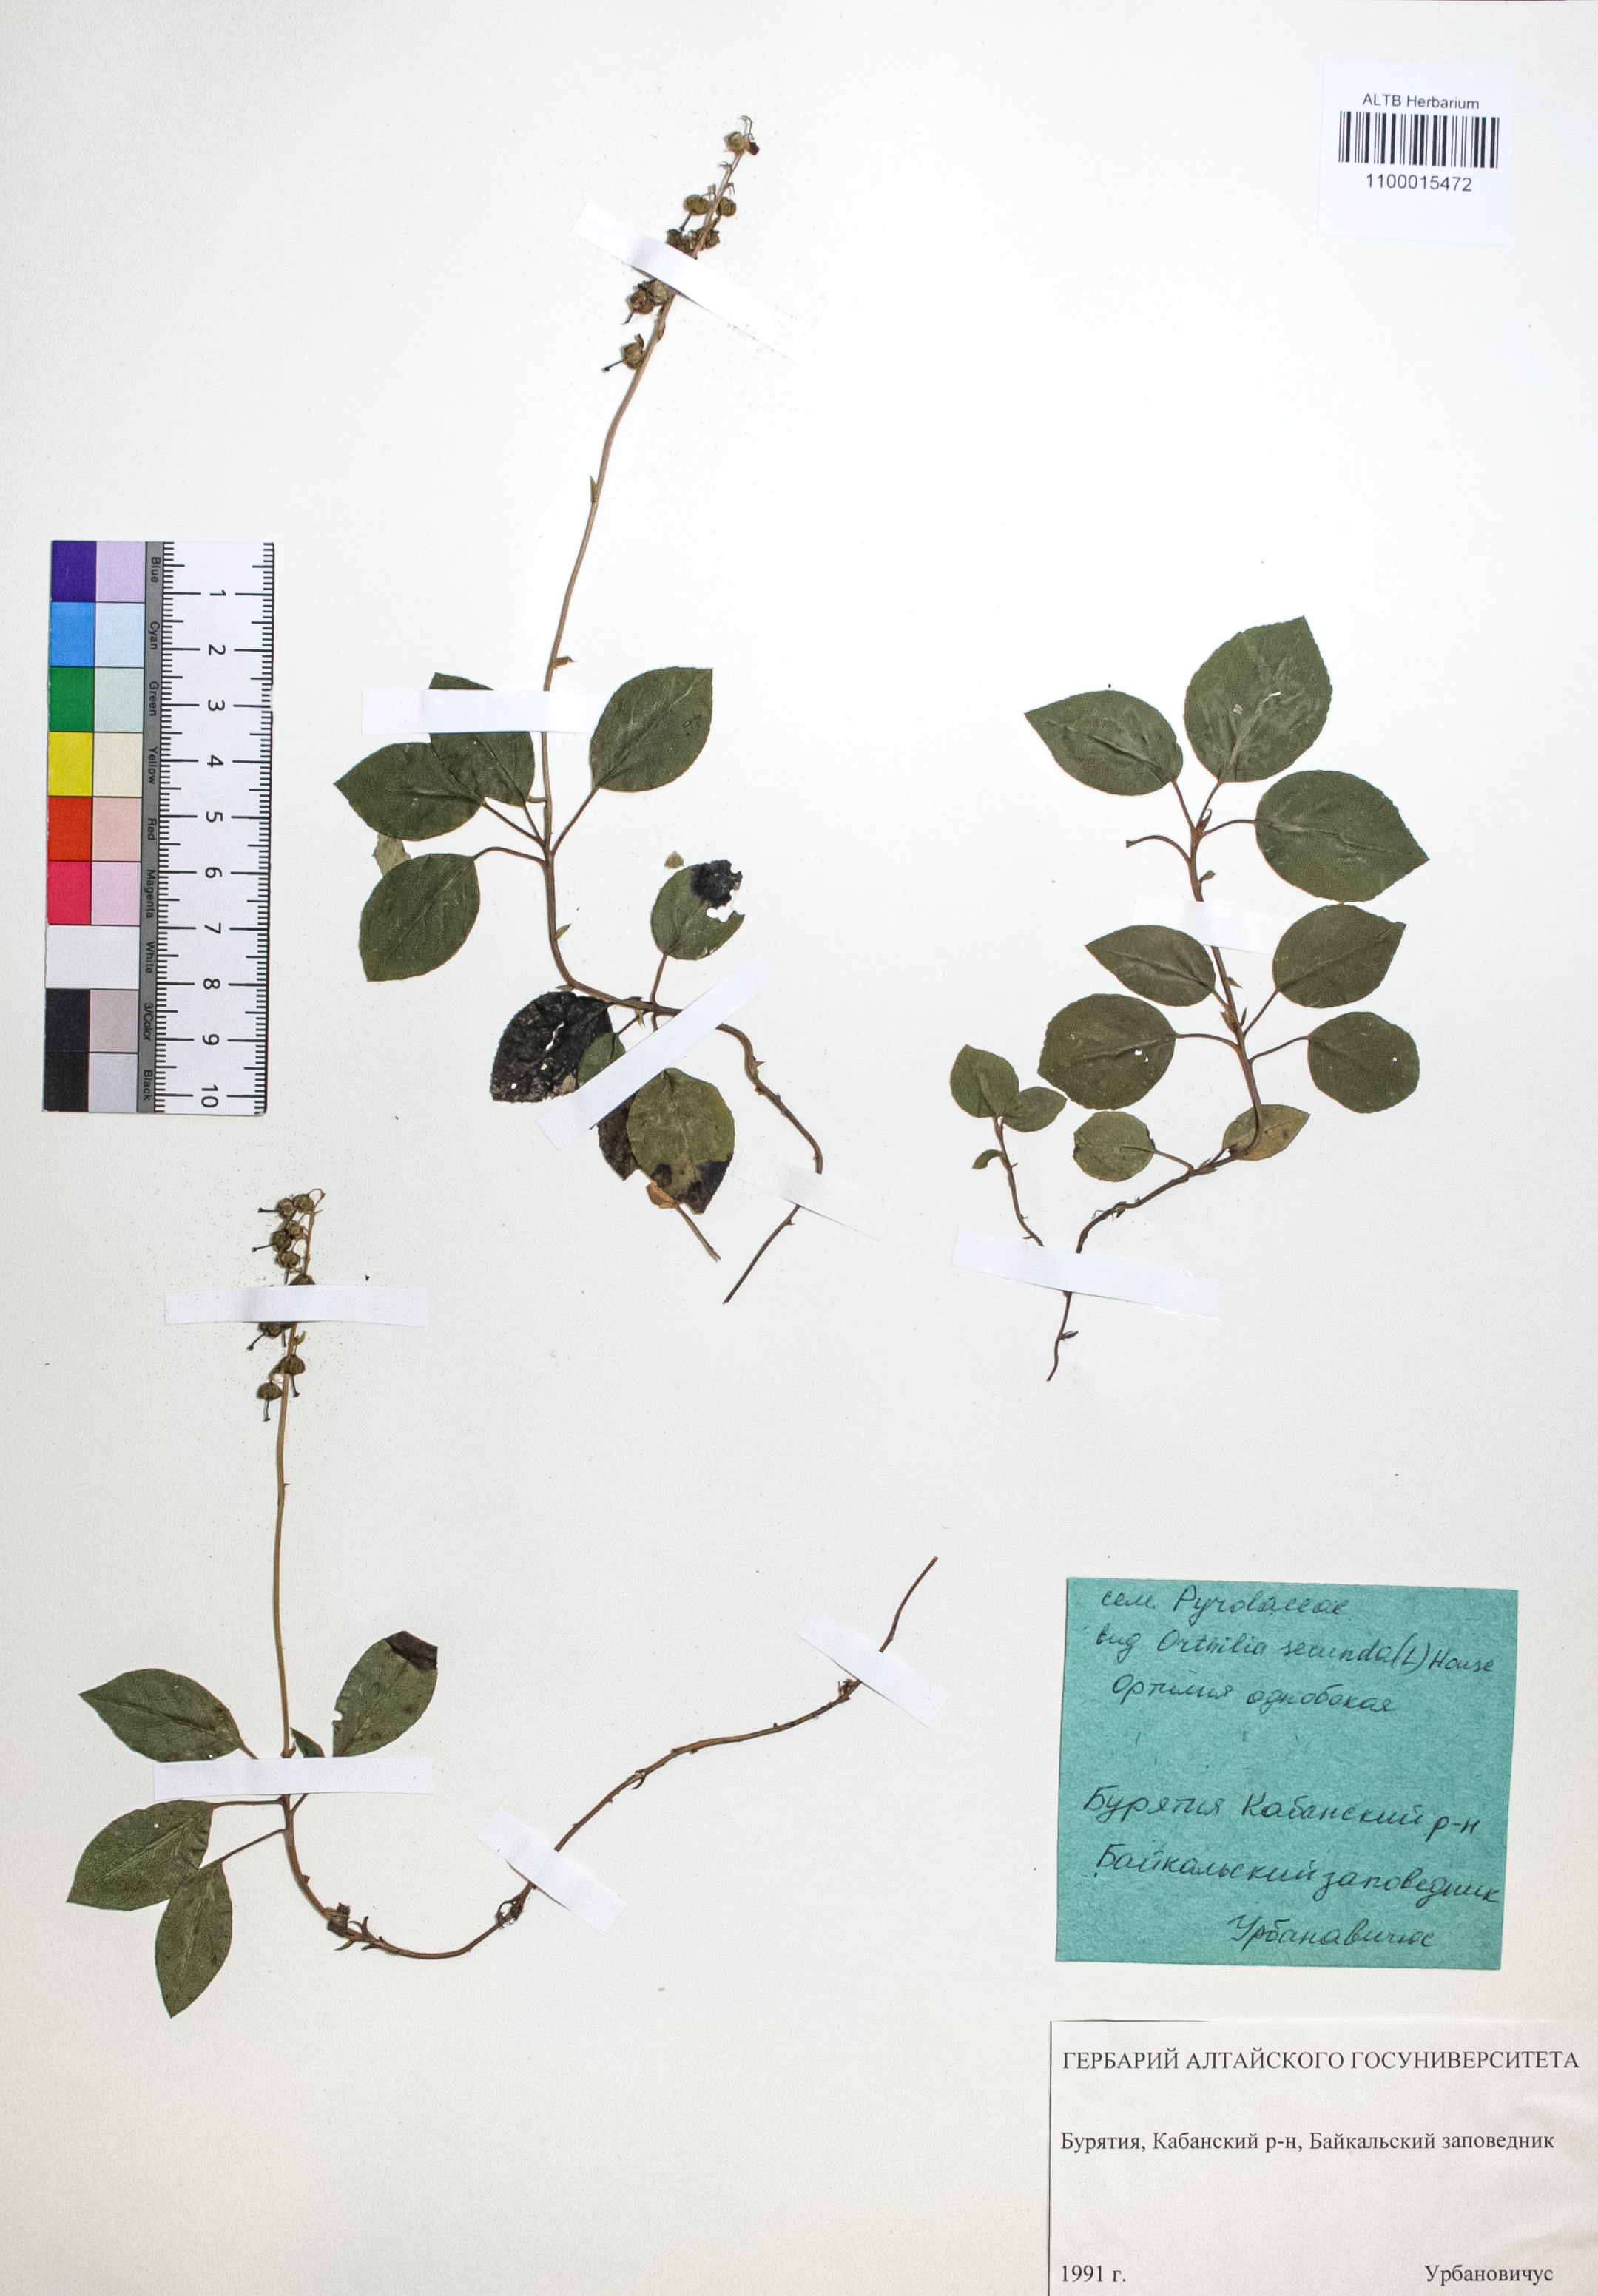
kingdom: Plantae
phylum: Tracheophyta
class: Magnoliopsida
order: Ericales
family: Ericaceae
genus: Orthilia
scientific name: Orthilia secunda
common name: One-sided orthilia
